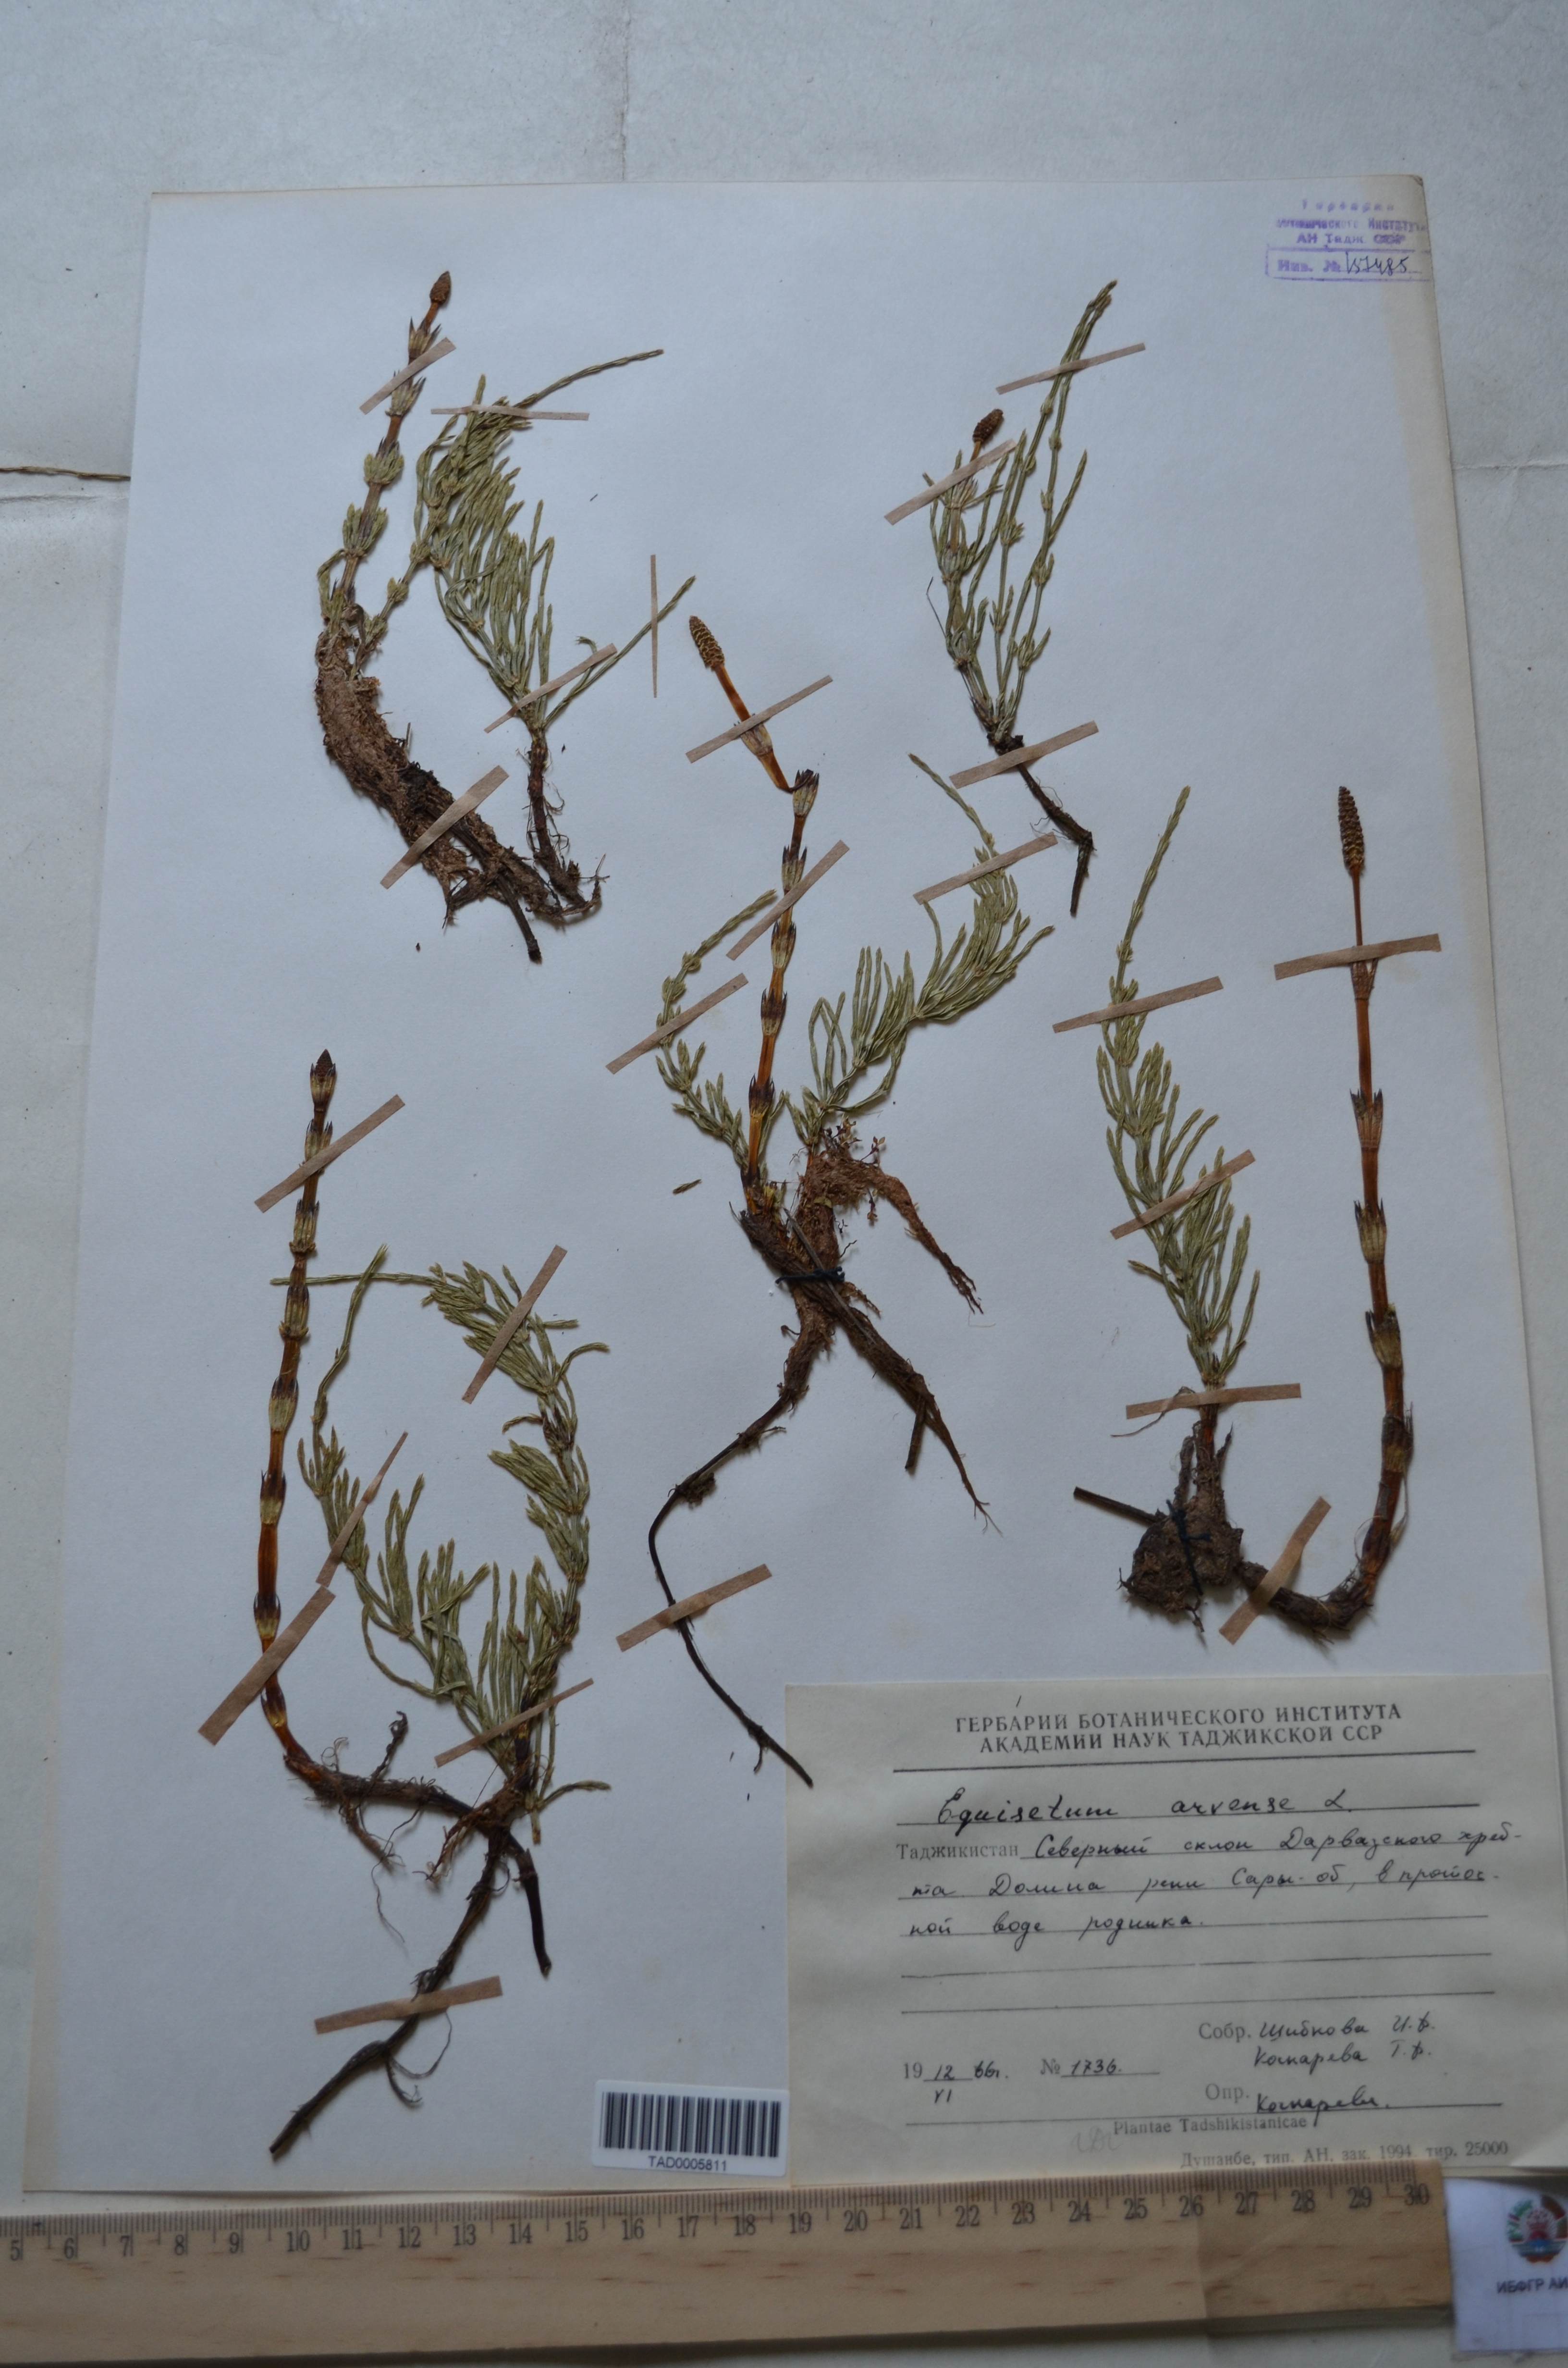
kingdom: Plantae
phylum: Tracheophyta
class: Polypodiopsida
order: Equisetales
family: Equisetaceae
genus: Equisetum
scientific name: Equisetum arvense
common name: Field horsetail
